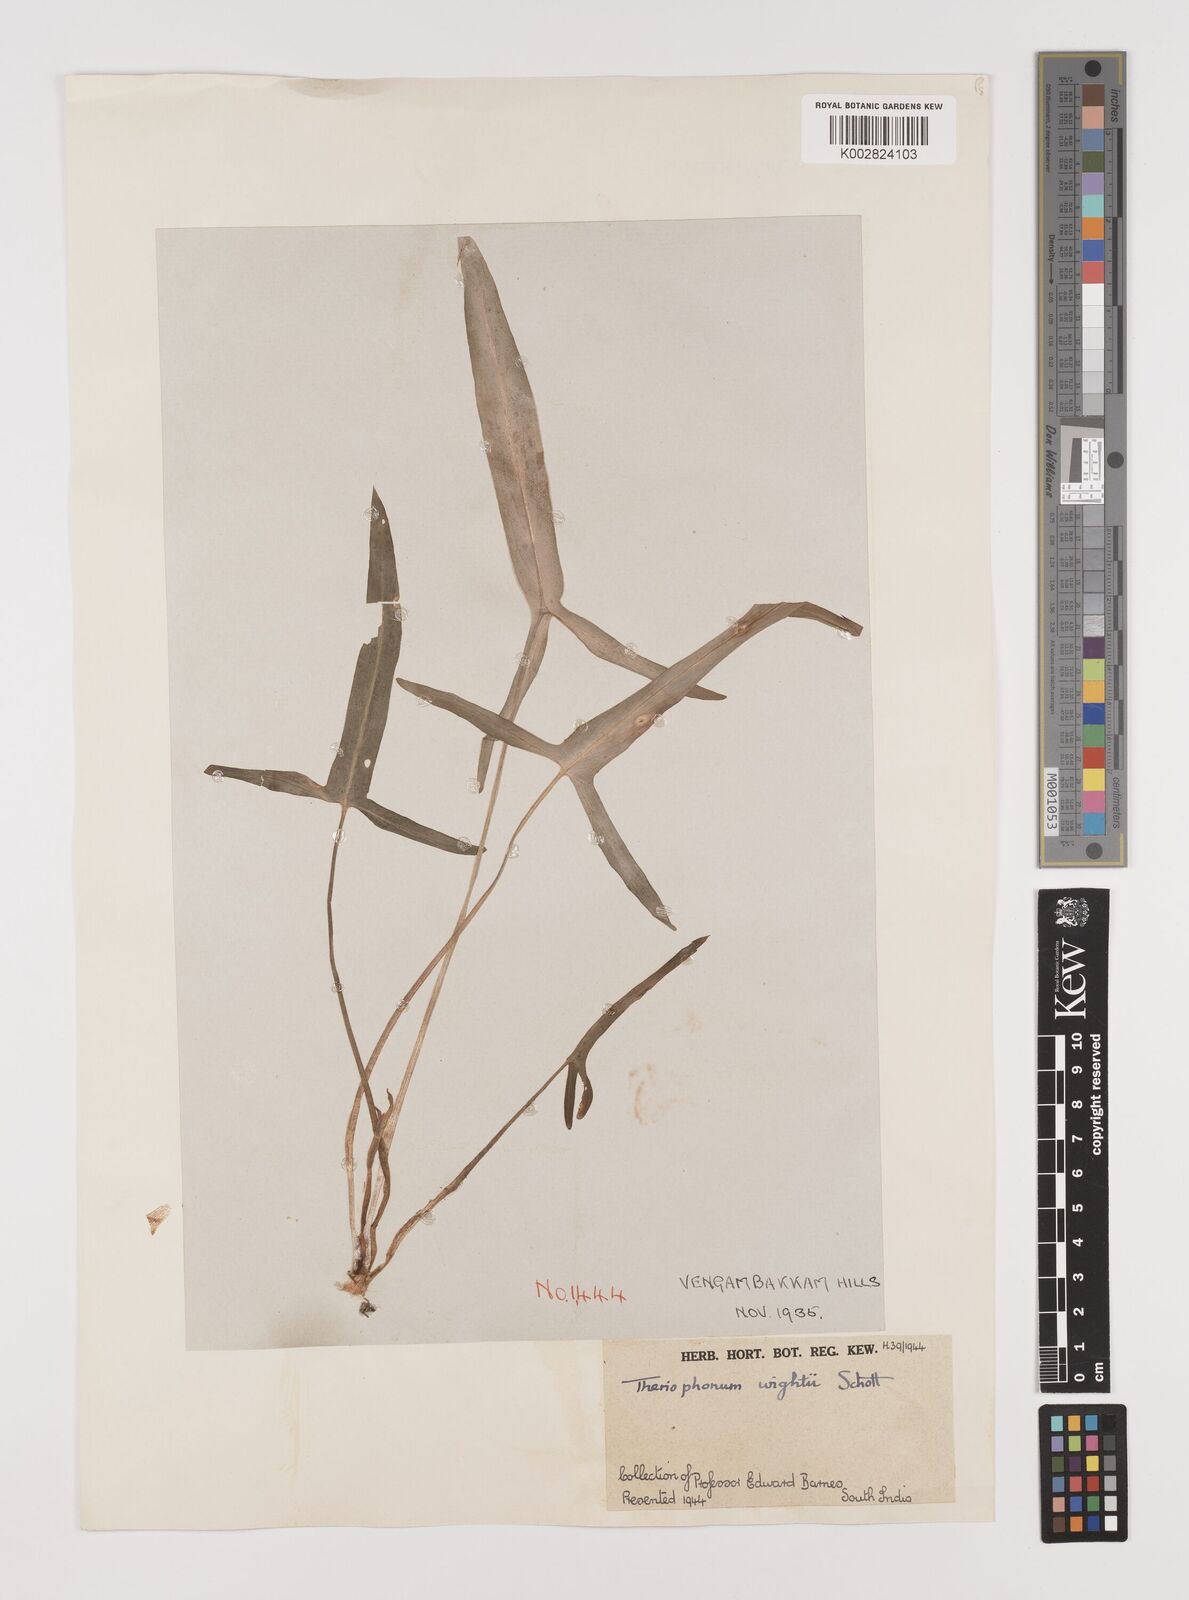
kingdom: Plantae
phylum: Tracheophyta
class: Liliopsida
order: Alismatales
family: Araceae
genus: Theriophonum
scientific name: Theriophonum minutum
